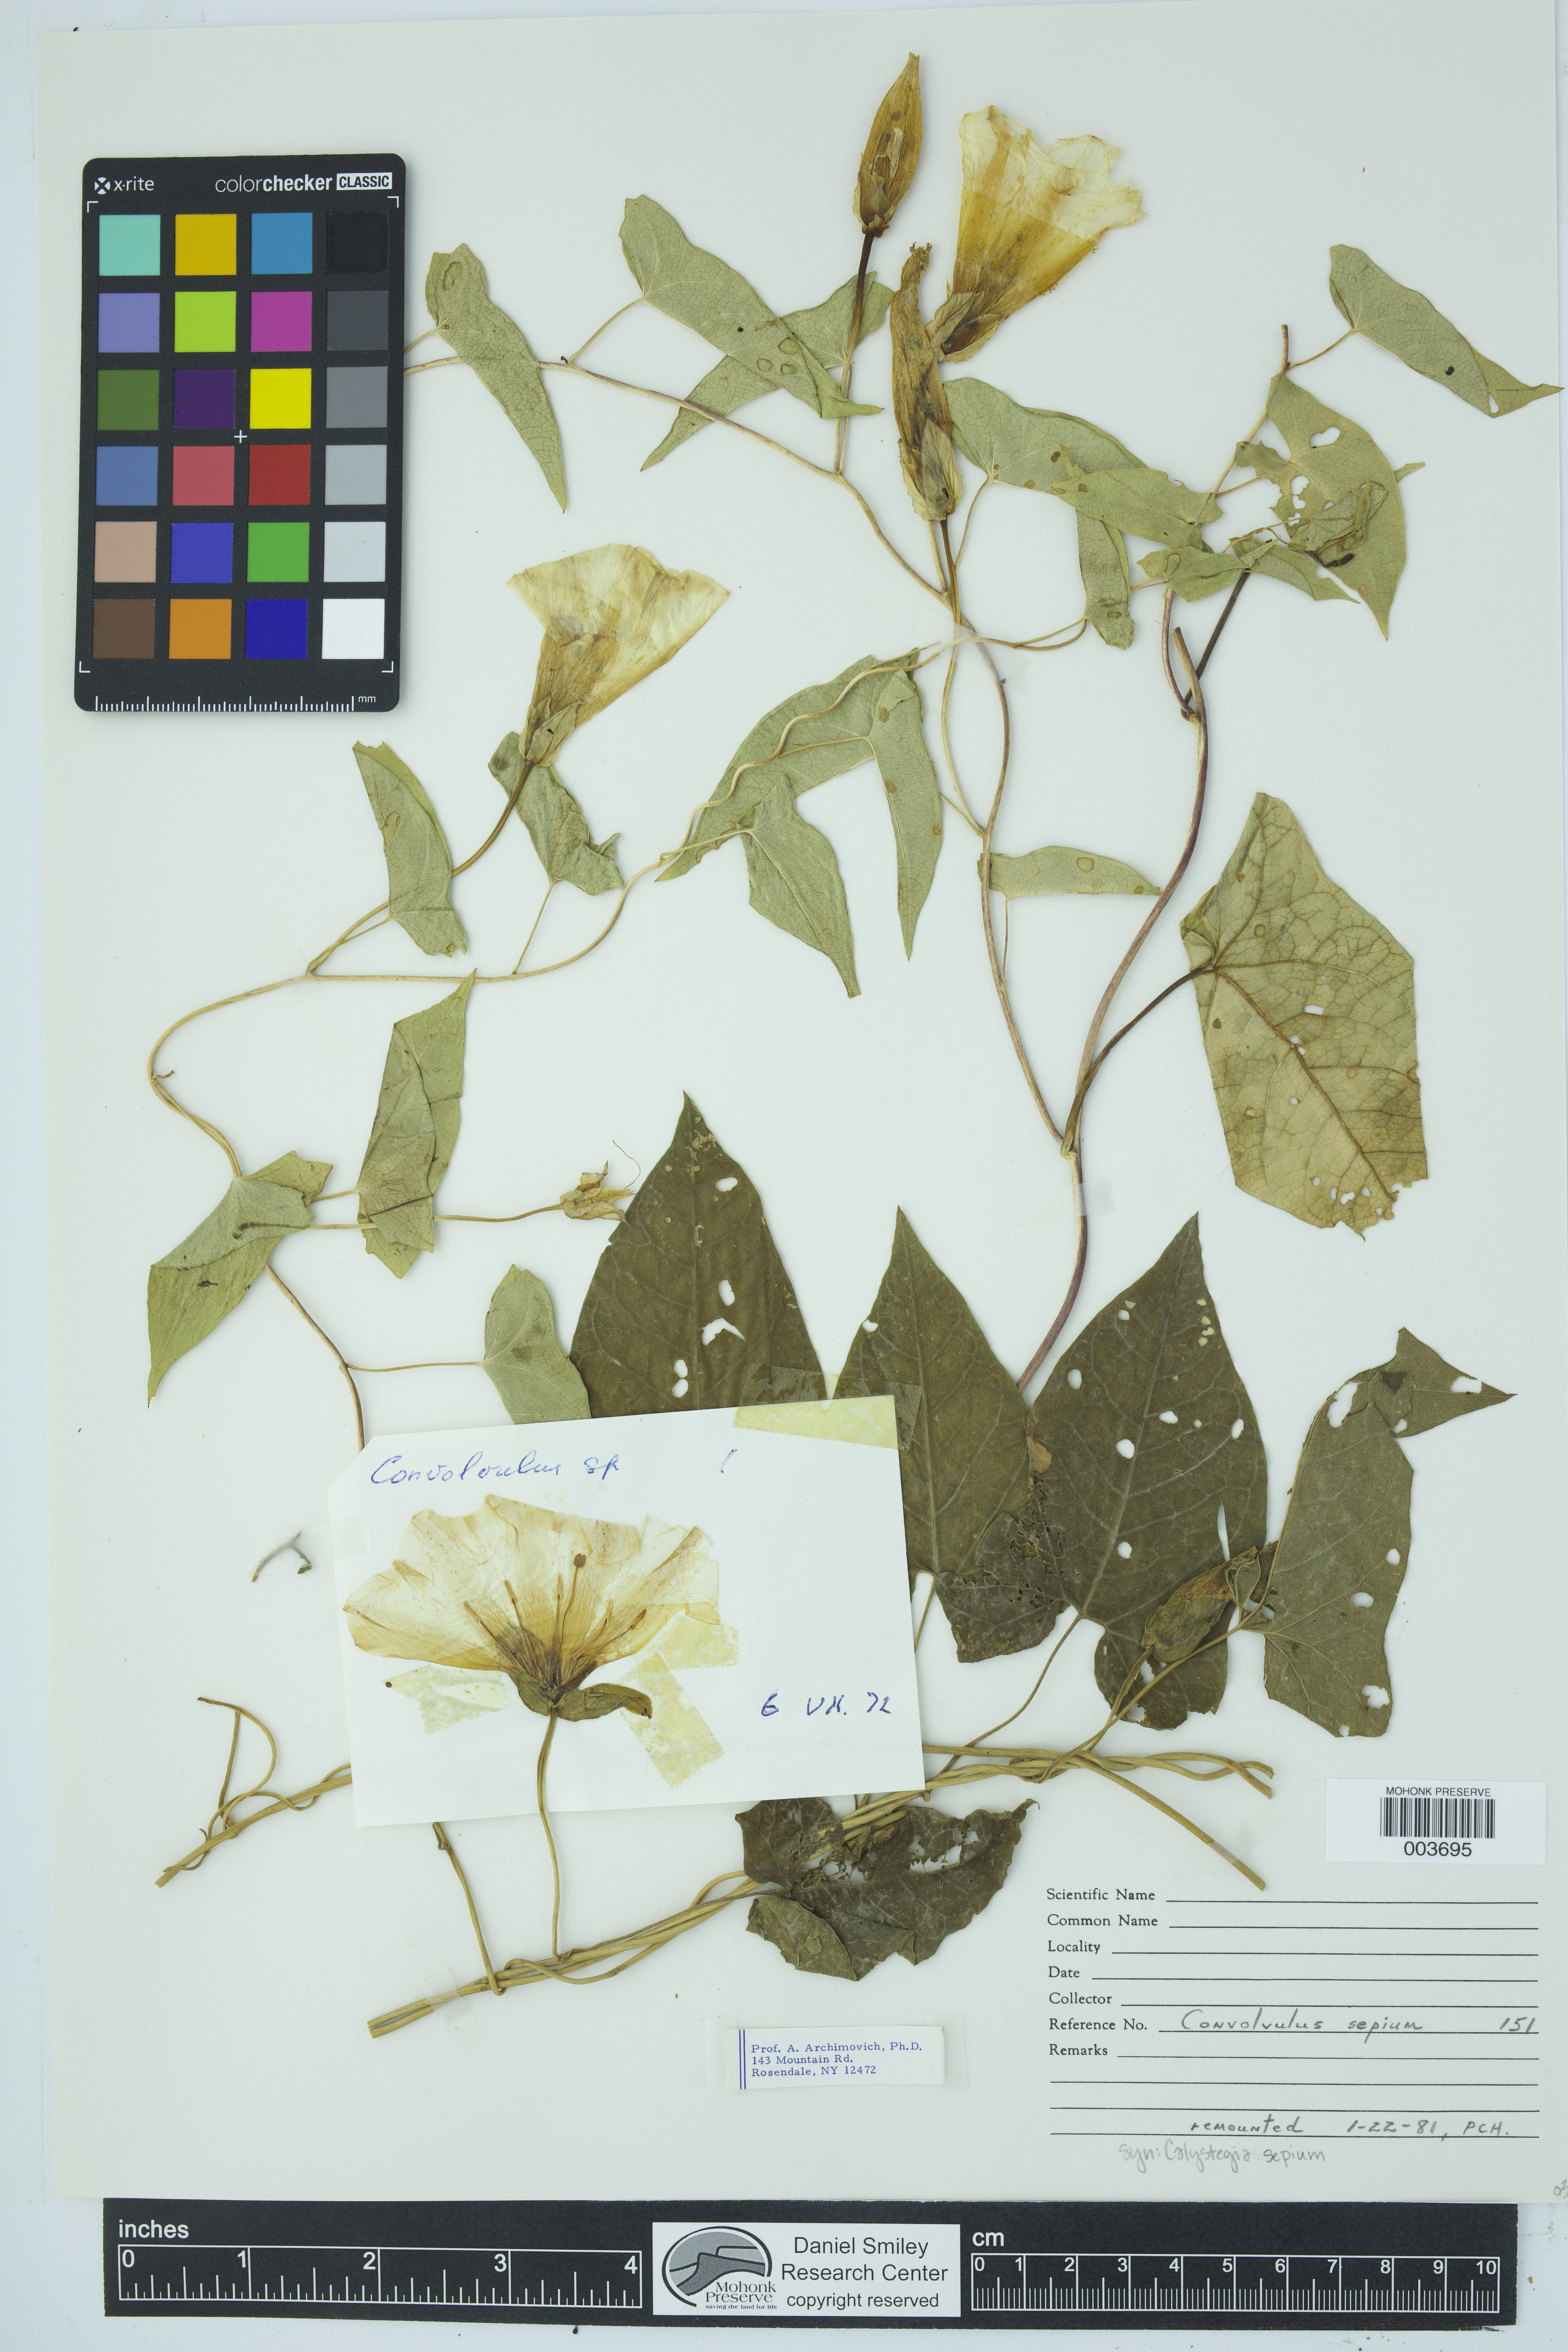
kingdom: Plantae
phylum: Tracheophyta
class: Magnoliopsida
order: Solanales
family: Convolvulaceae
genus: Calystegia
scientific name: Calystegia sepium
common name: Hedge bindweed
